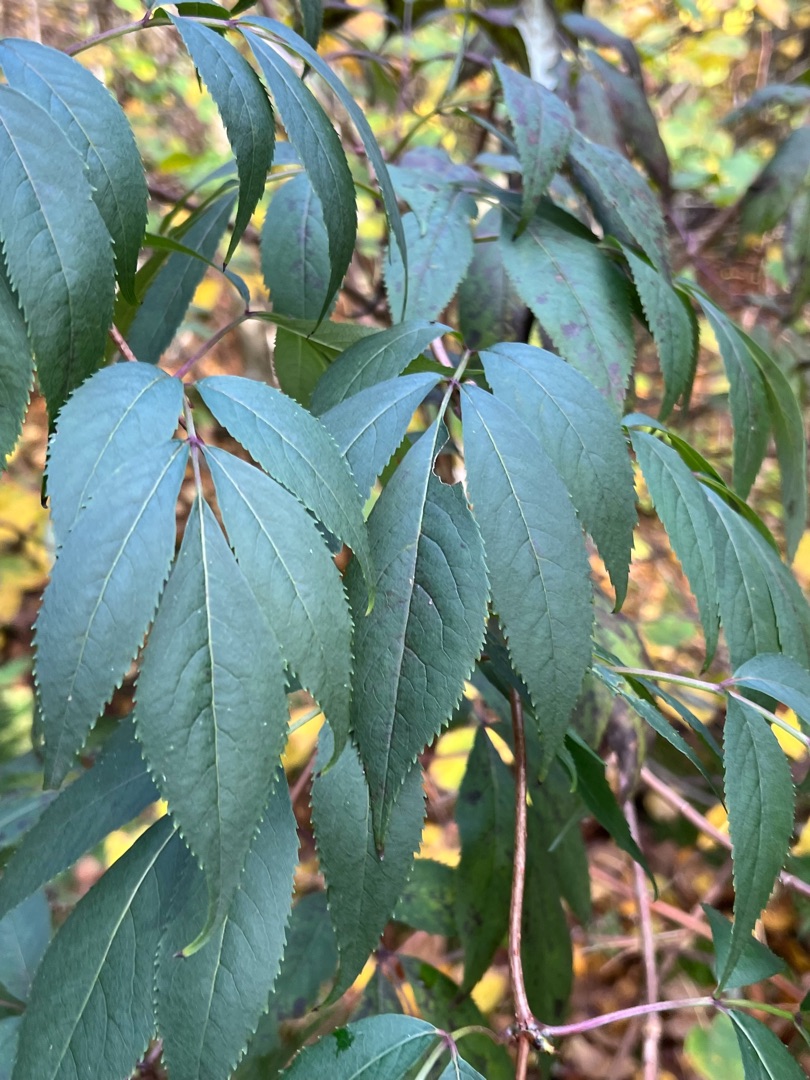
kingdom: Plantae
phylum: Tracheophyta
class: Magnoliopsida
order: Dipsacales
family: Viburnaceae
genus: Sambucus
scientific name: Sambucus racemosa
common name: Drue-hyld
